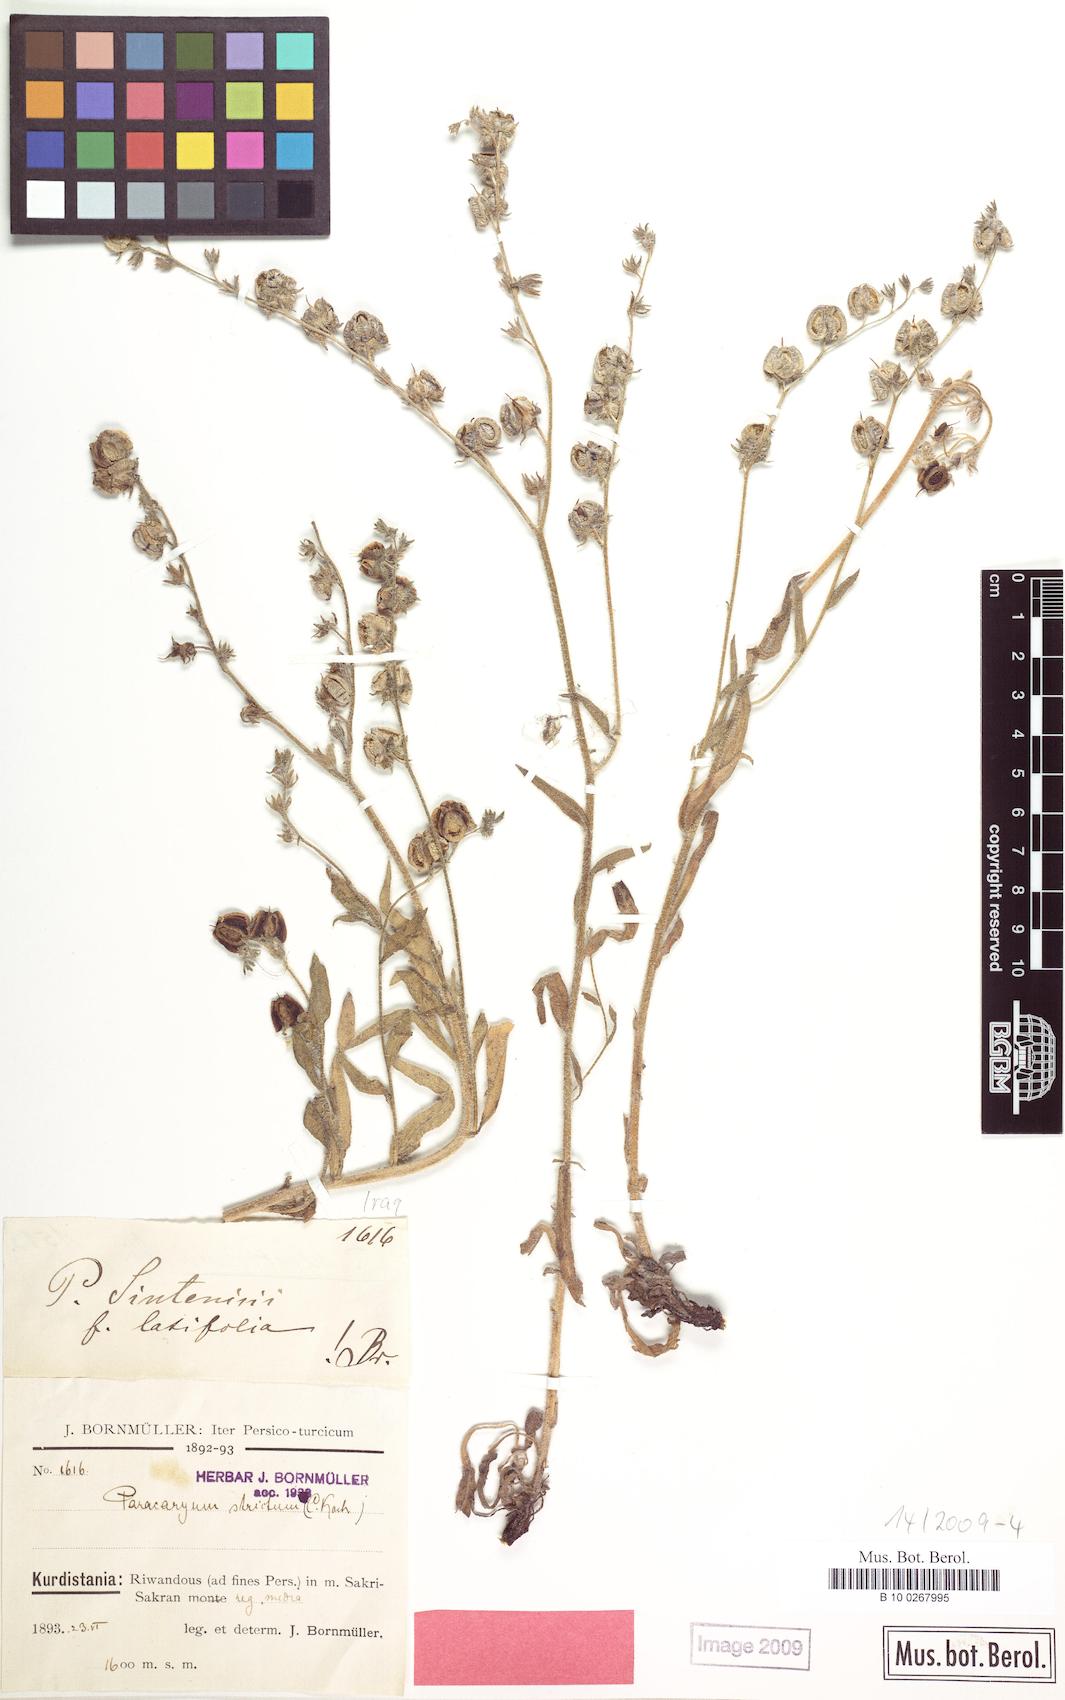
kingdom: Plantae
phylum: Tracheophyta
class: Magnoliopsida
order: Boraginales
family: Boraginaceae
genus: Paracaryum
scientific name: Paracaryum sintenisii
